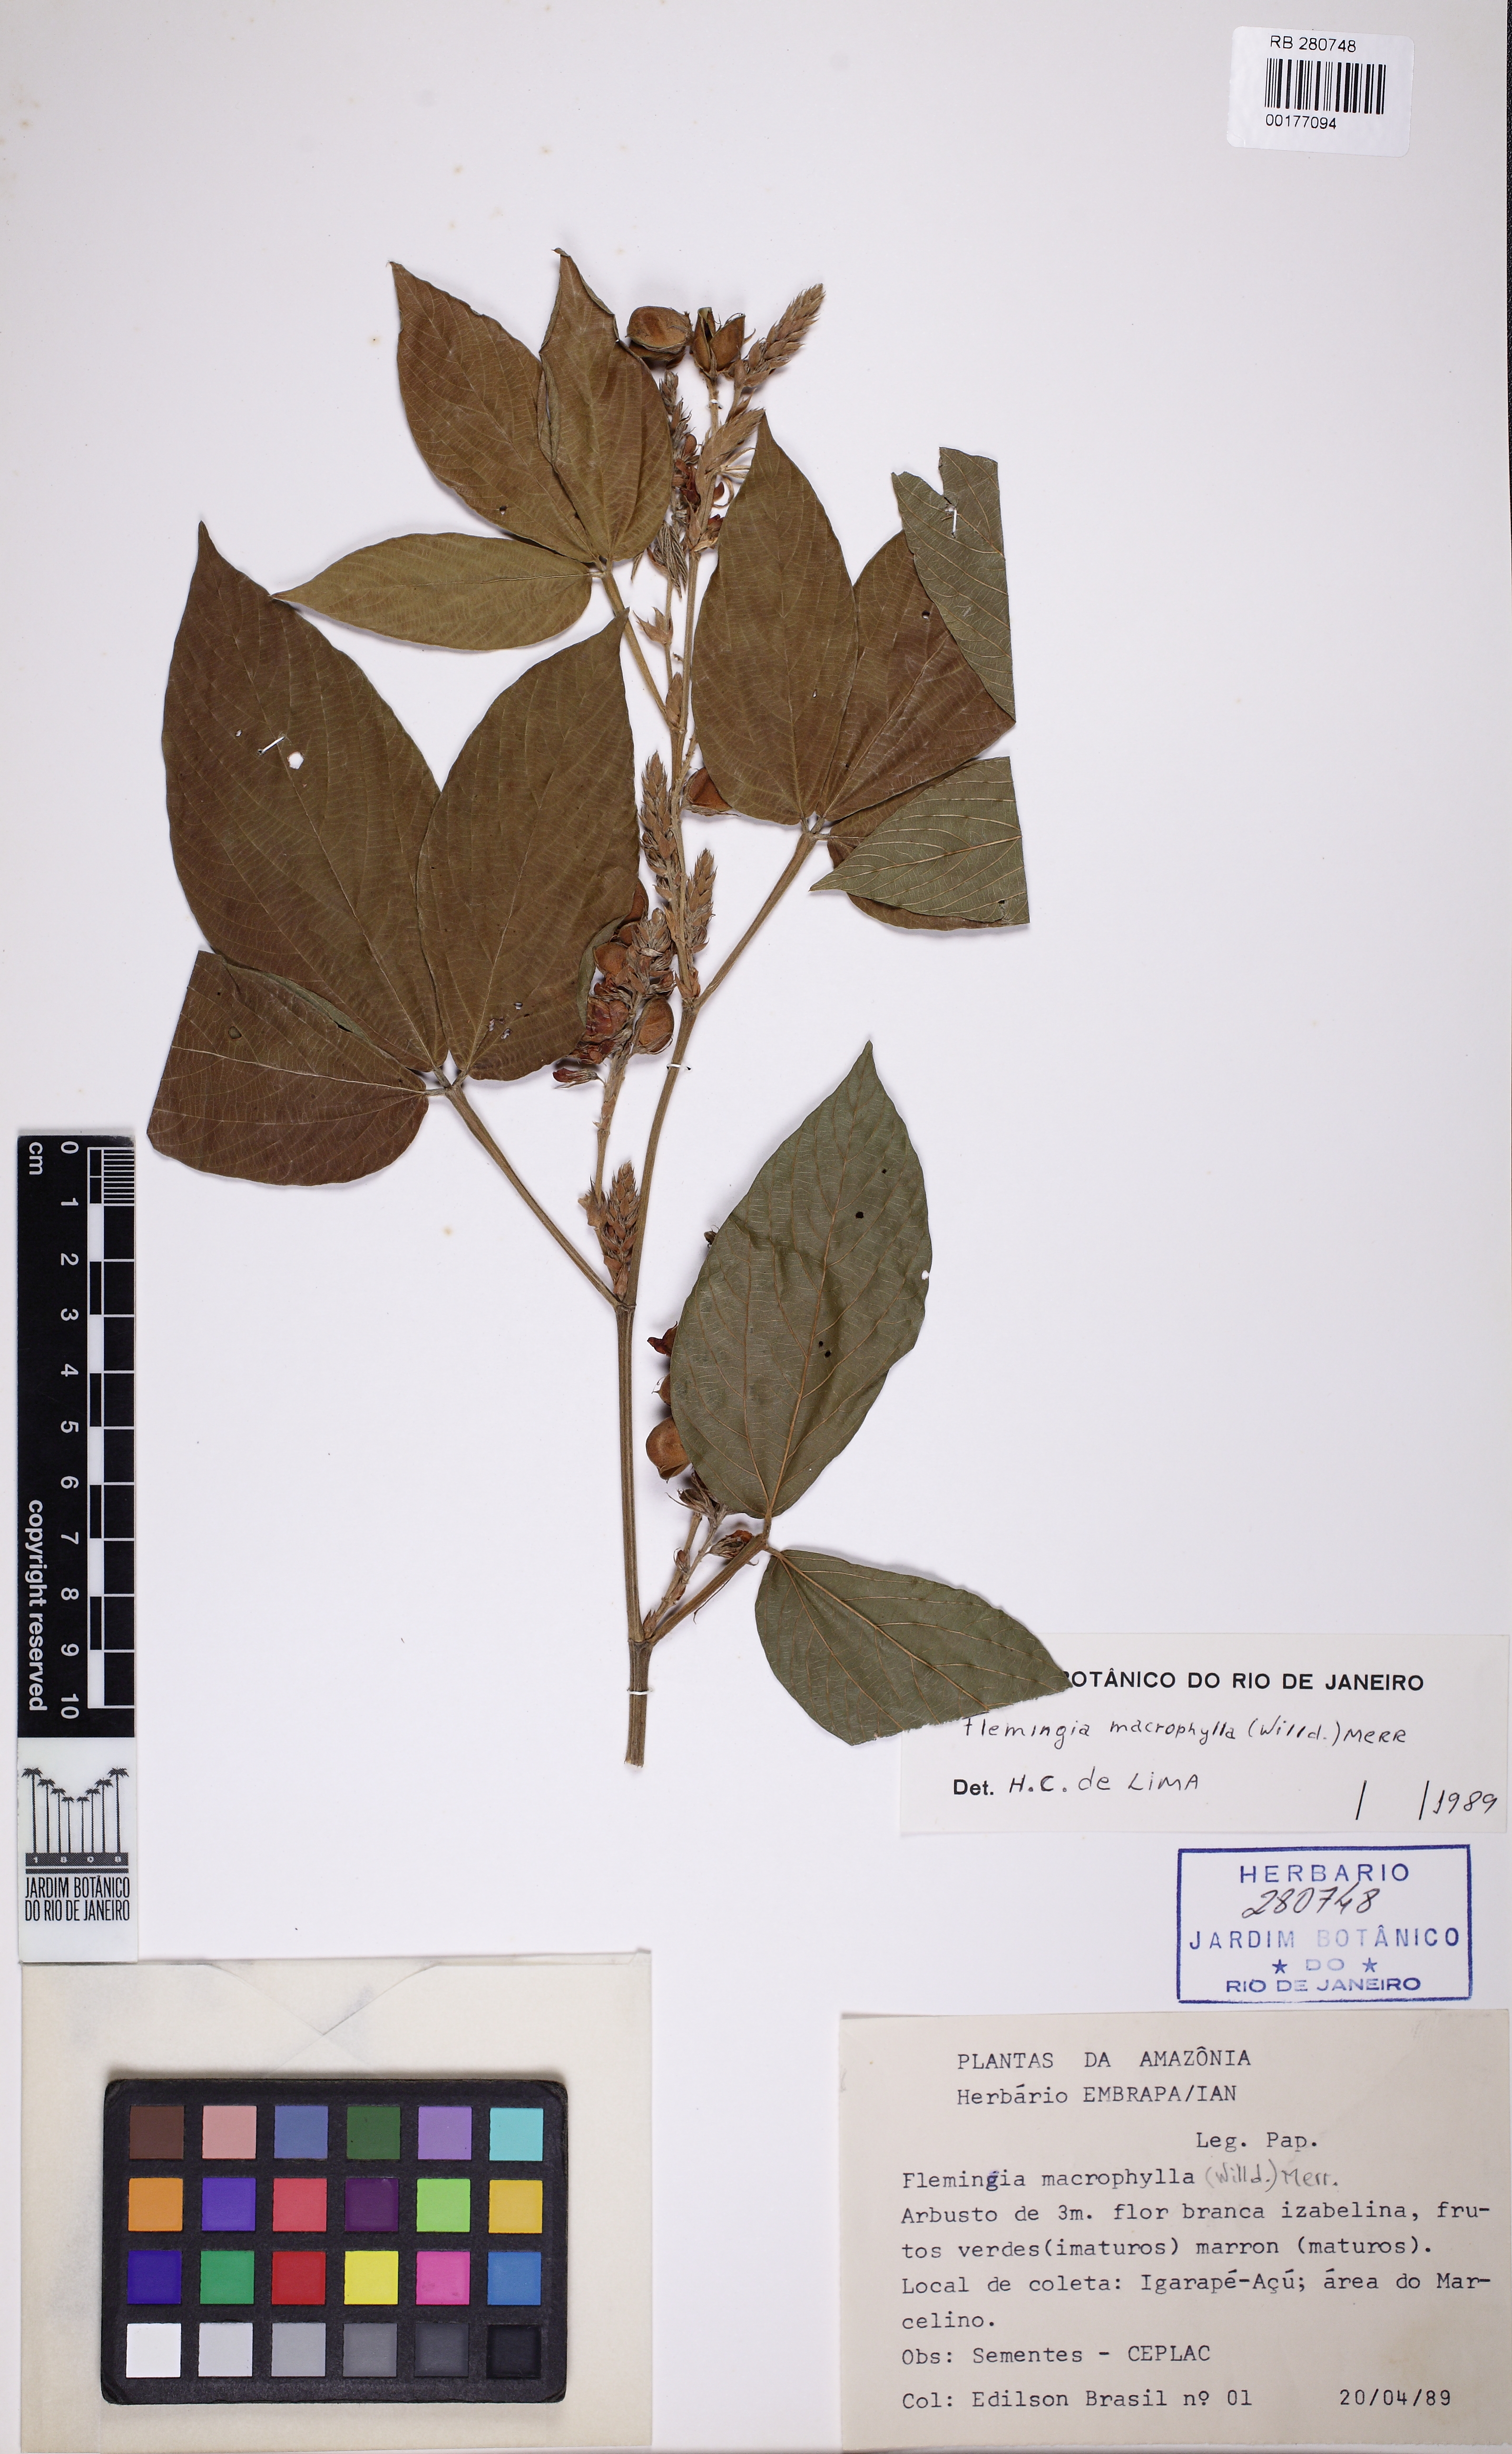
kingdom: Plantae
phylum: Tracheophyta
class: Magnoliopsida
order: Fabales
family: Fabaceae
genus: Flemingia
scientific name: Flemingia macrophylla
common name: Flemingia
